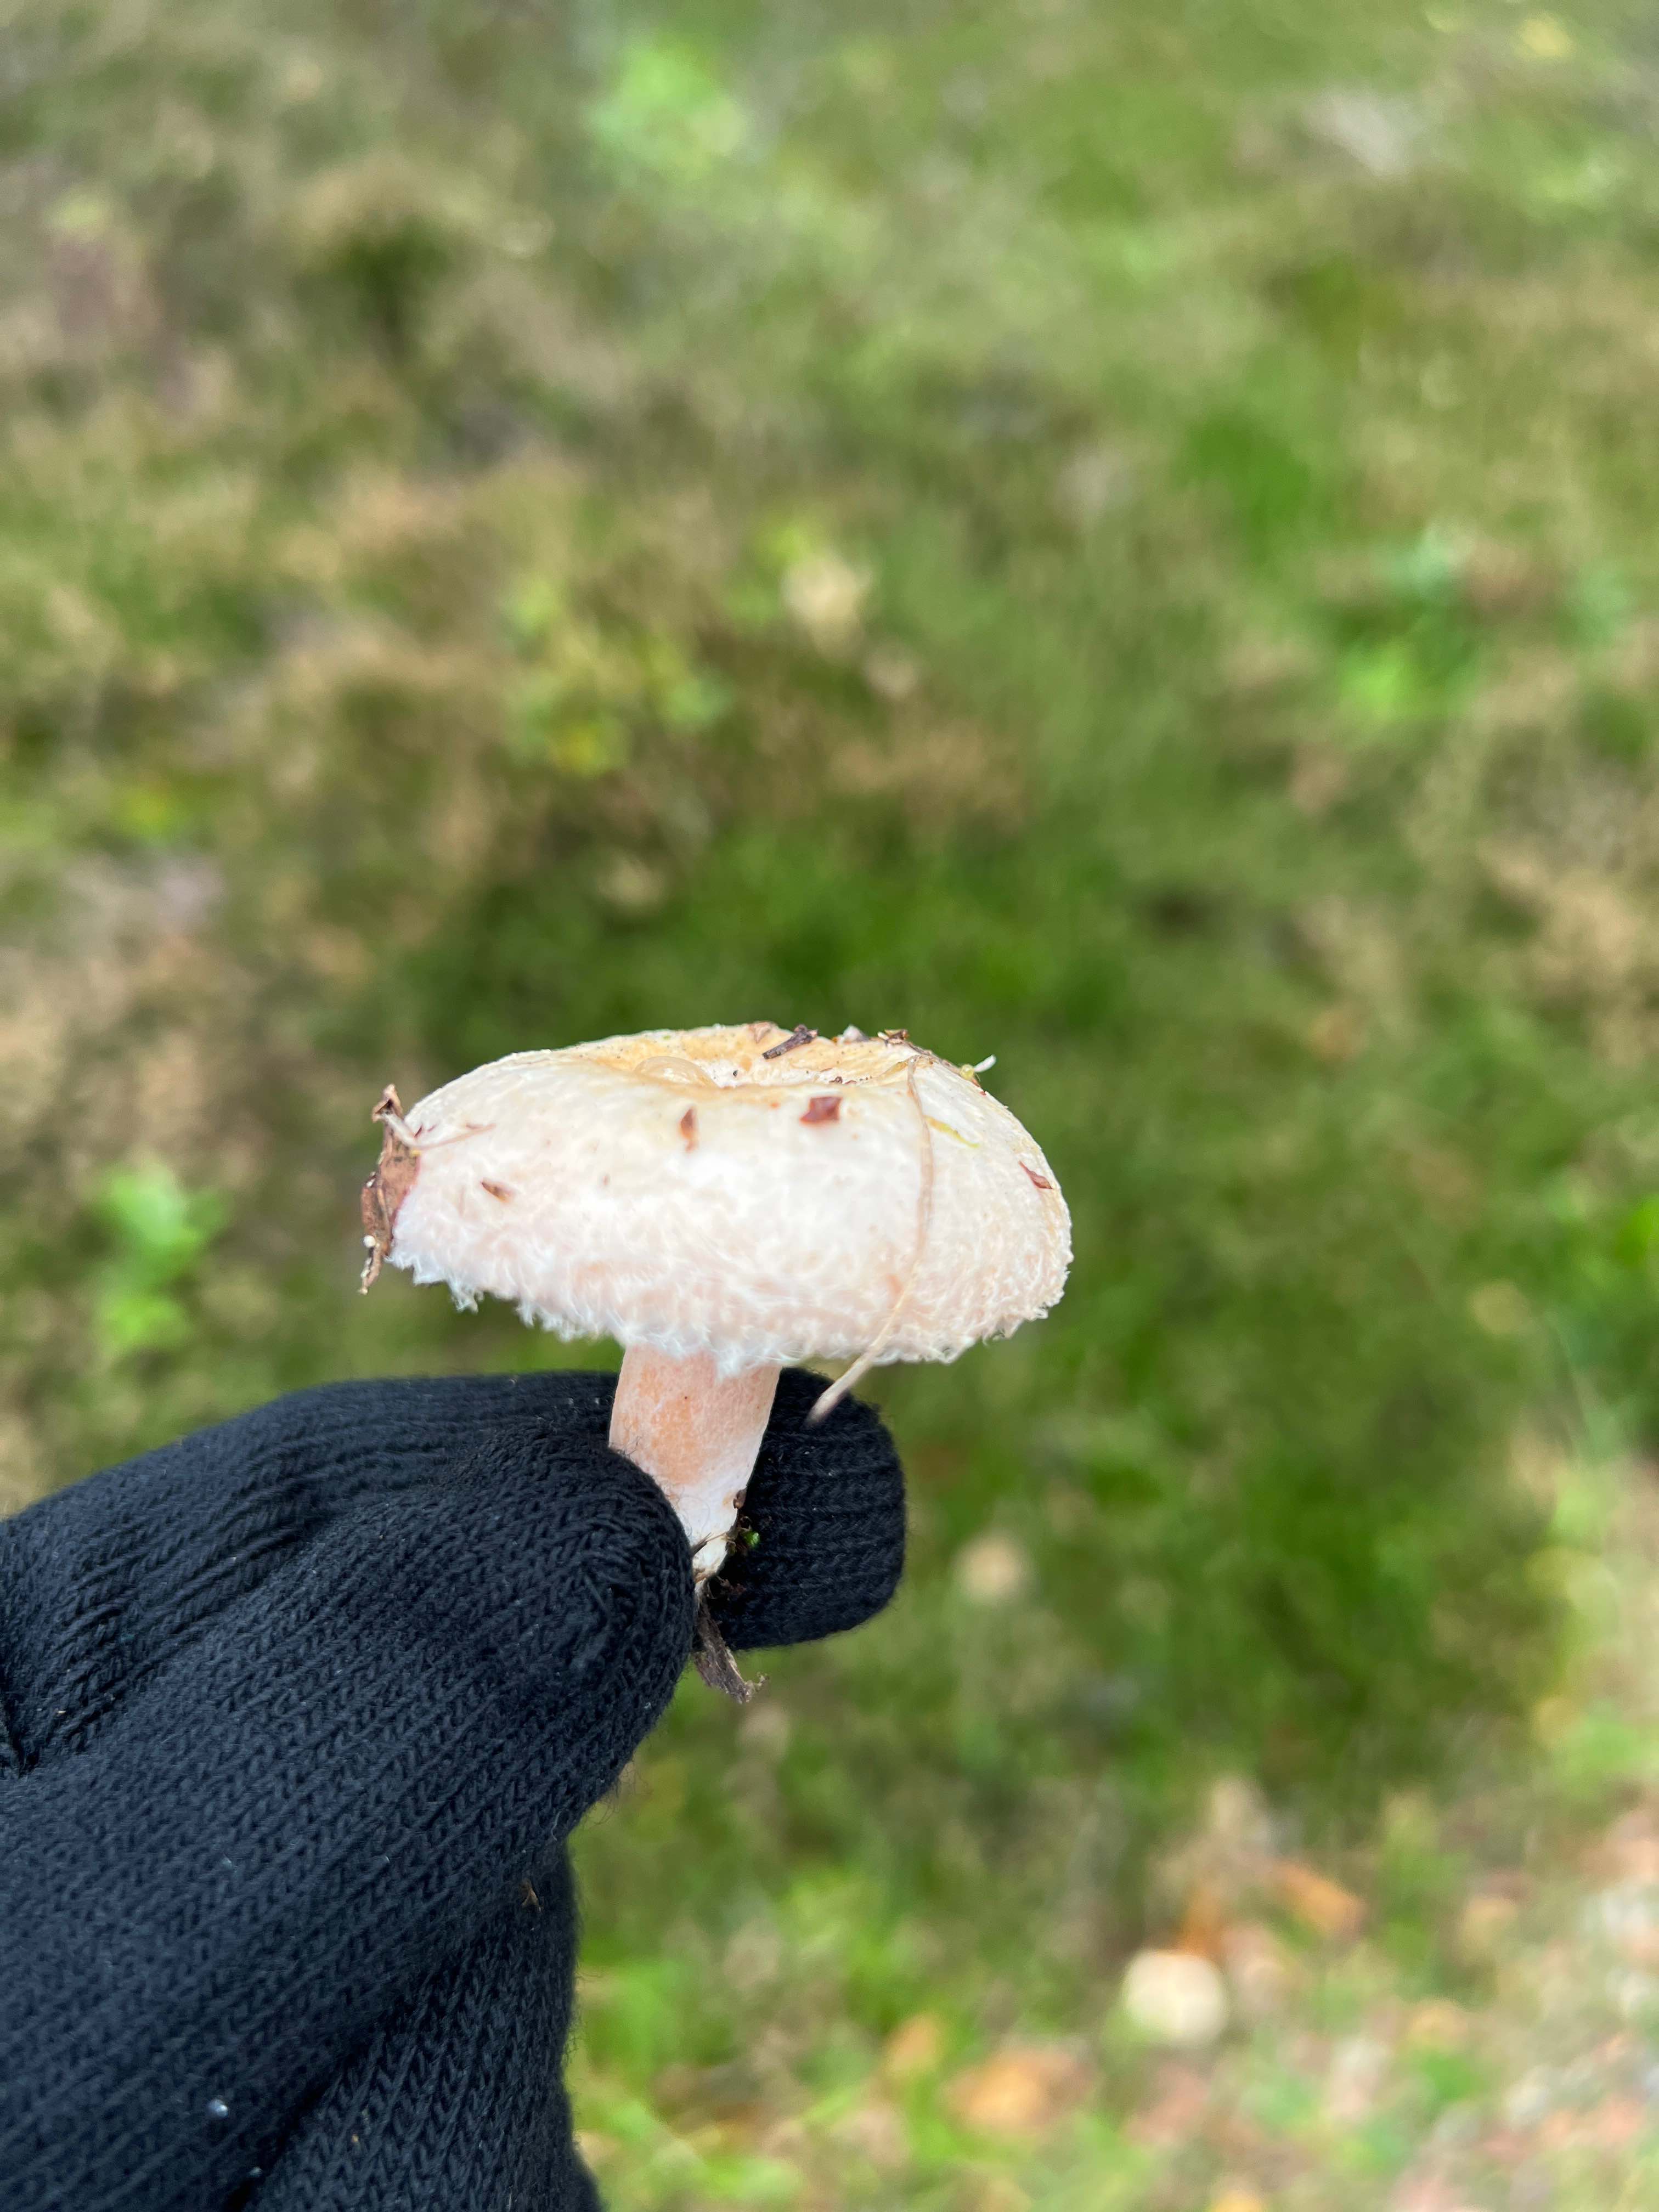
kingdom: Fungi
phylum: Basidiomycota
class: Agaricomycetes
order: Russulales
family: Russulaceae
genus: Lactarius
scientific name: Lactarius torminosus
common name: skægget mælkehat
